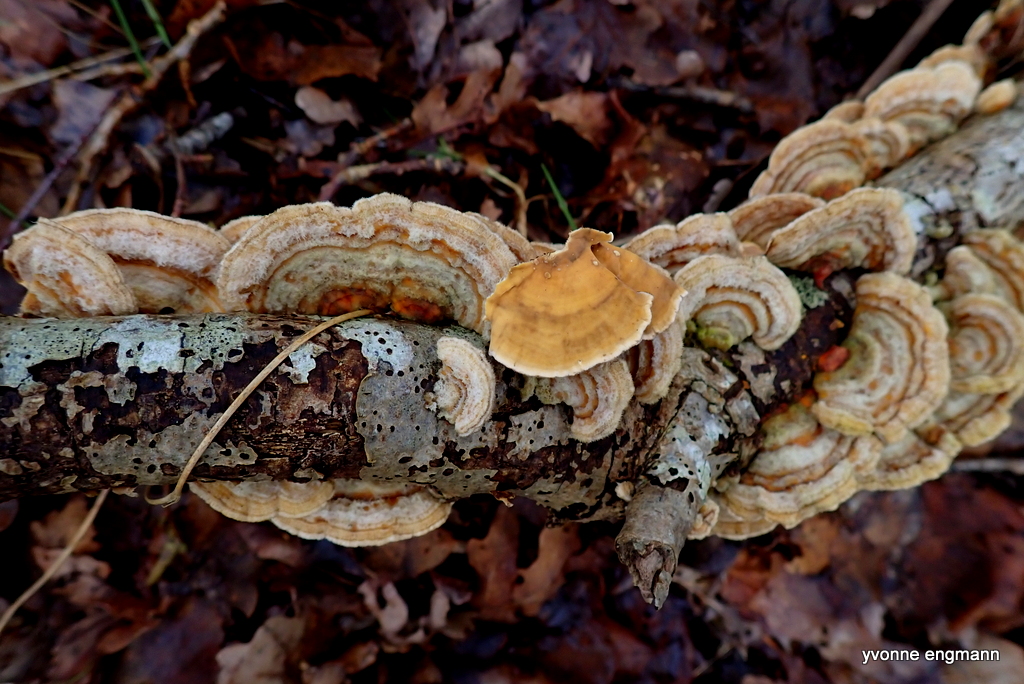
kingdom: Fungi
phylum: Basidiomycota
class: Agaricomycetes
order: Russulales
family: Stereaceae
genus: Stereum
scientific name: Stereum hirsutum
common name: håret lædersvamp
